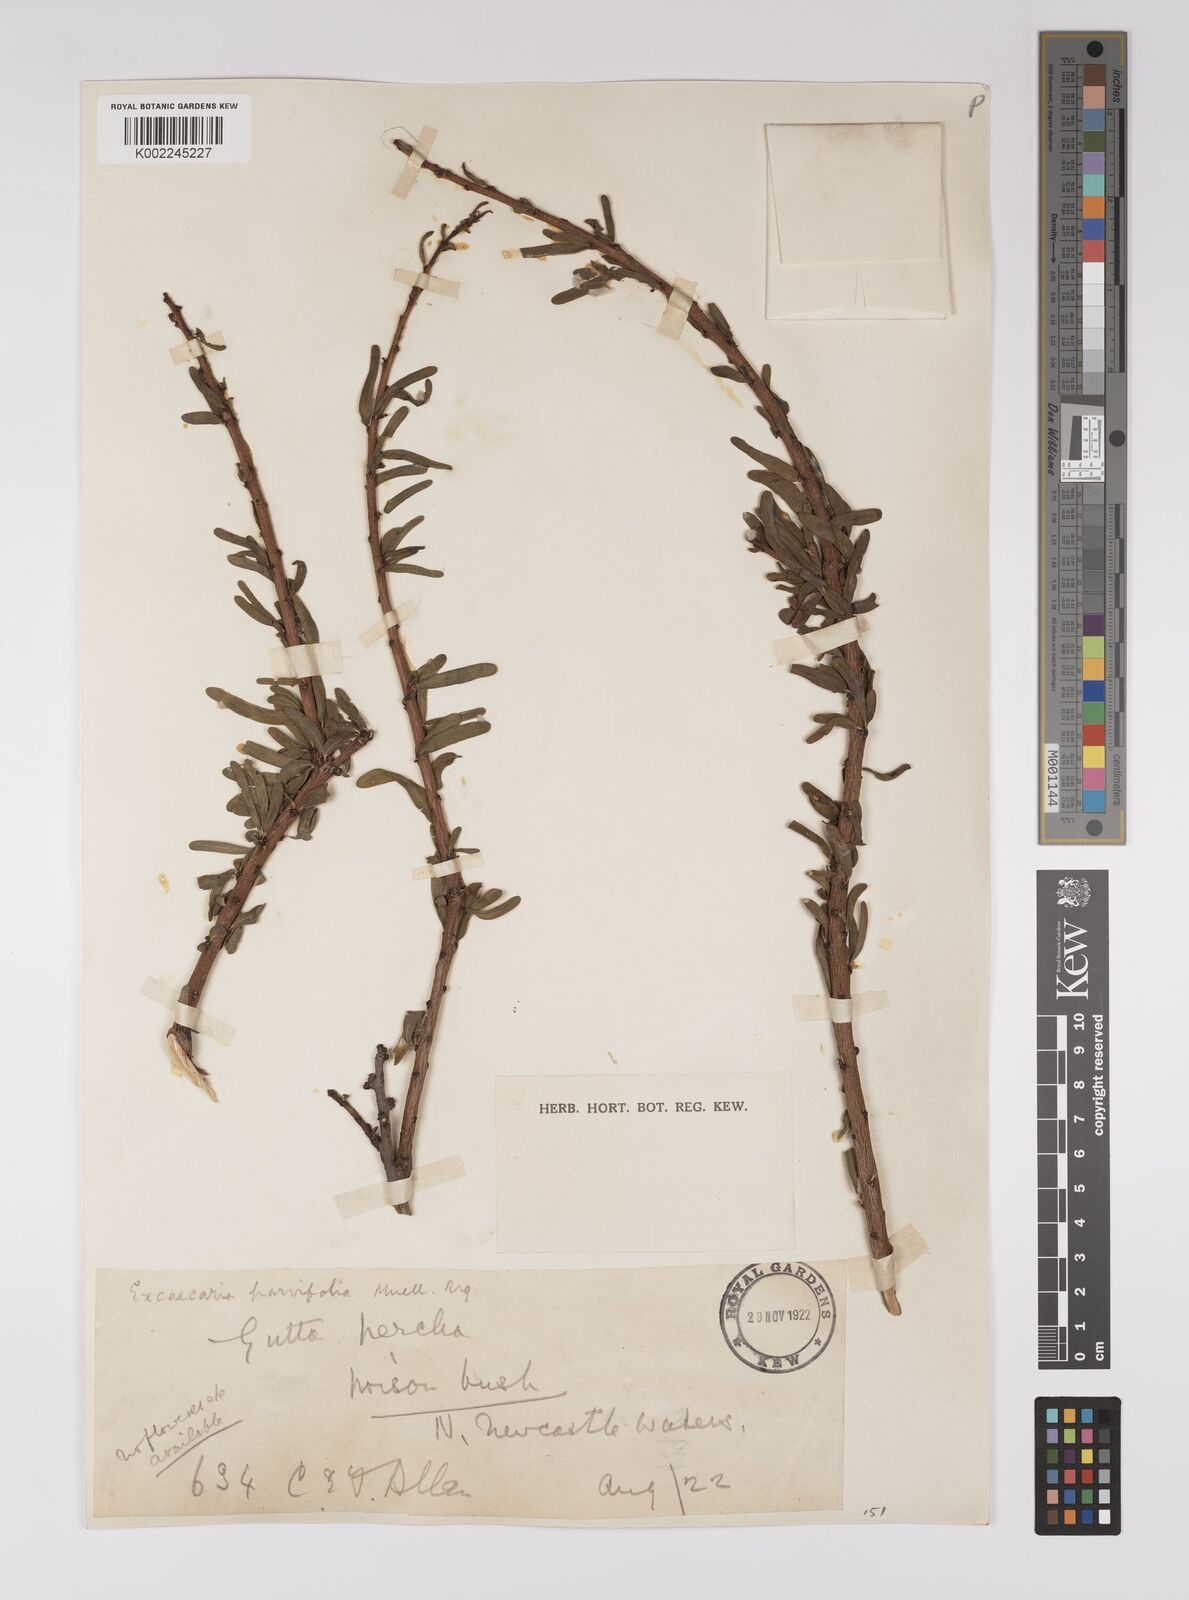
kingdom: Plantae
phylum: Tracheophyta
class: Magnoliopsida
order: Malpighiales
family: Euphorbiaceae
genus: Excoecaria
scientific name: Excoecaria parvifolia
